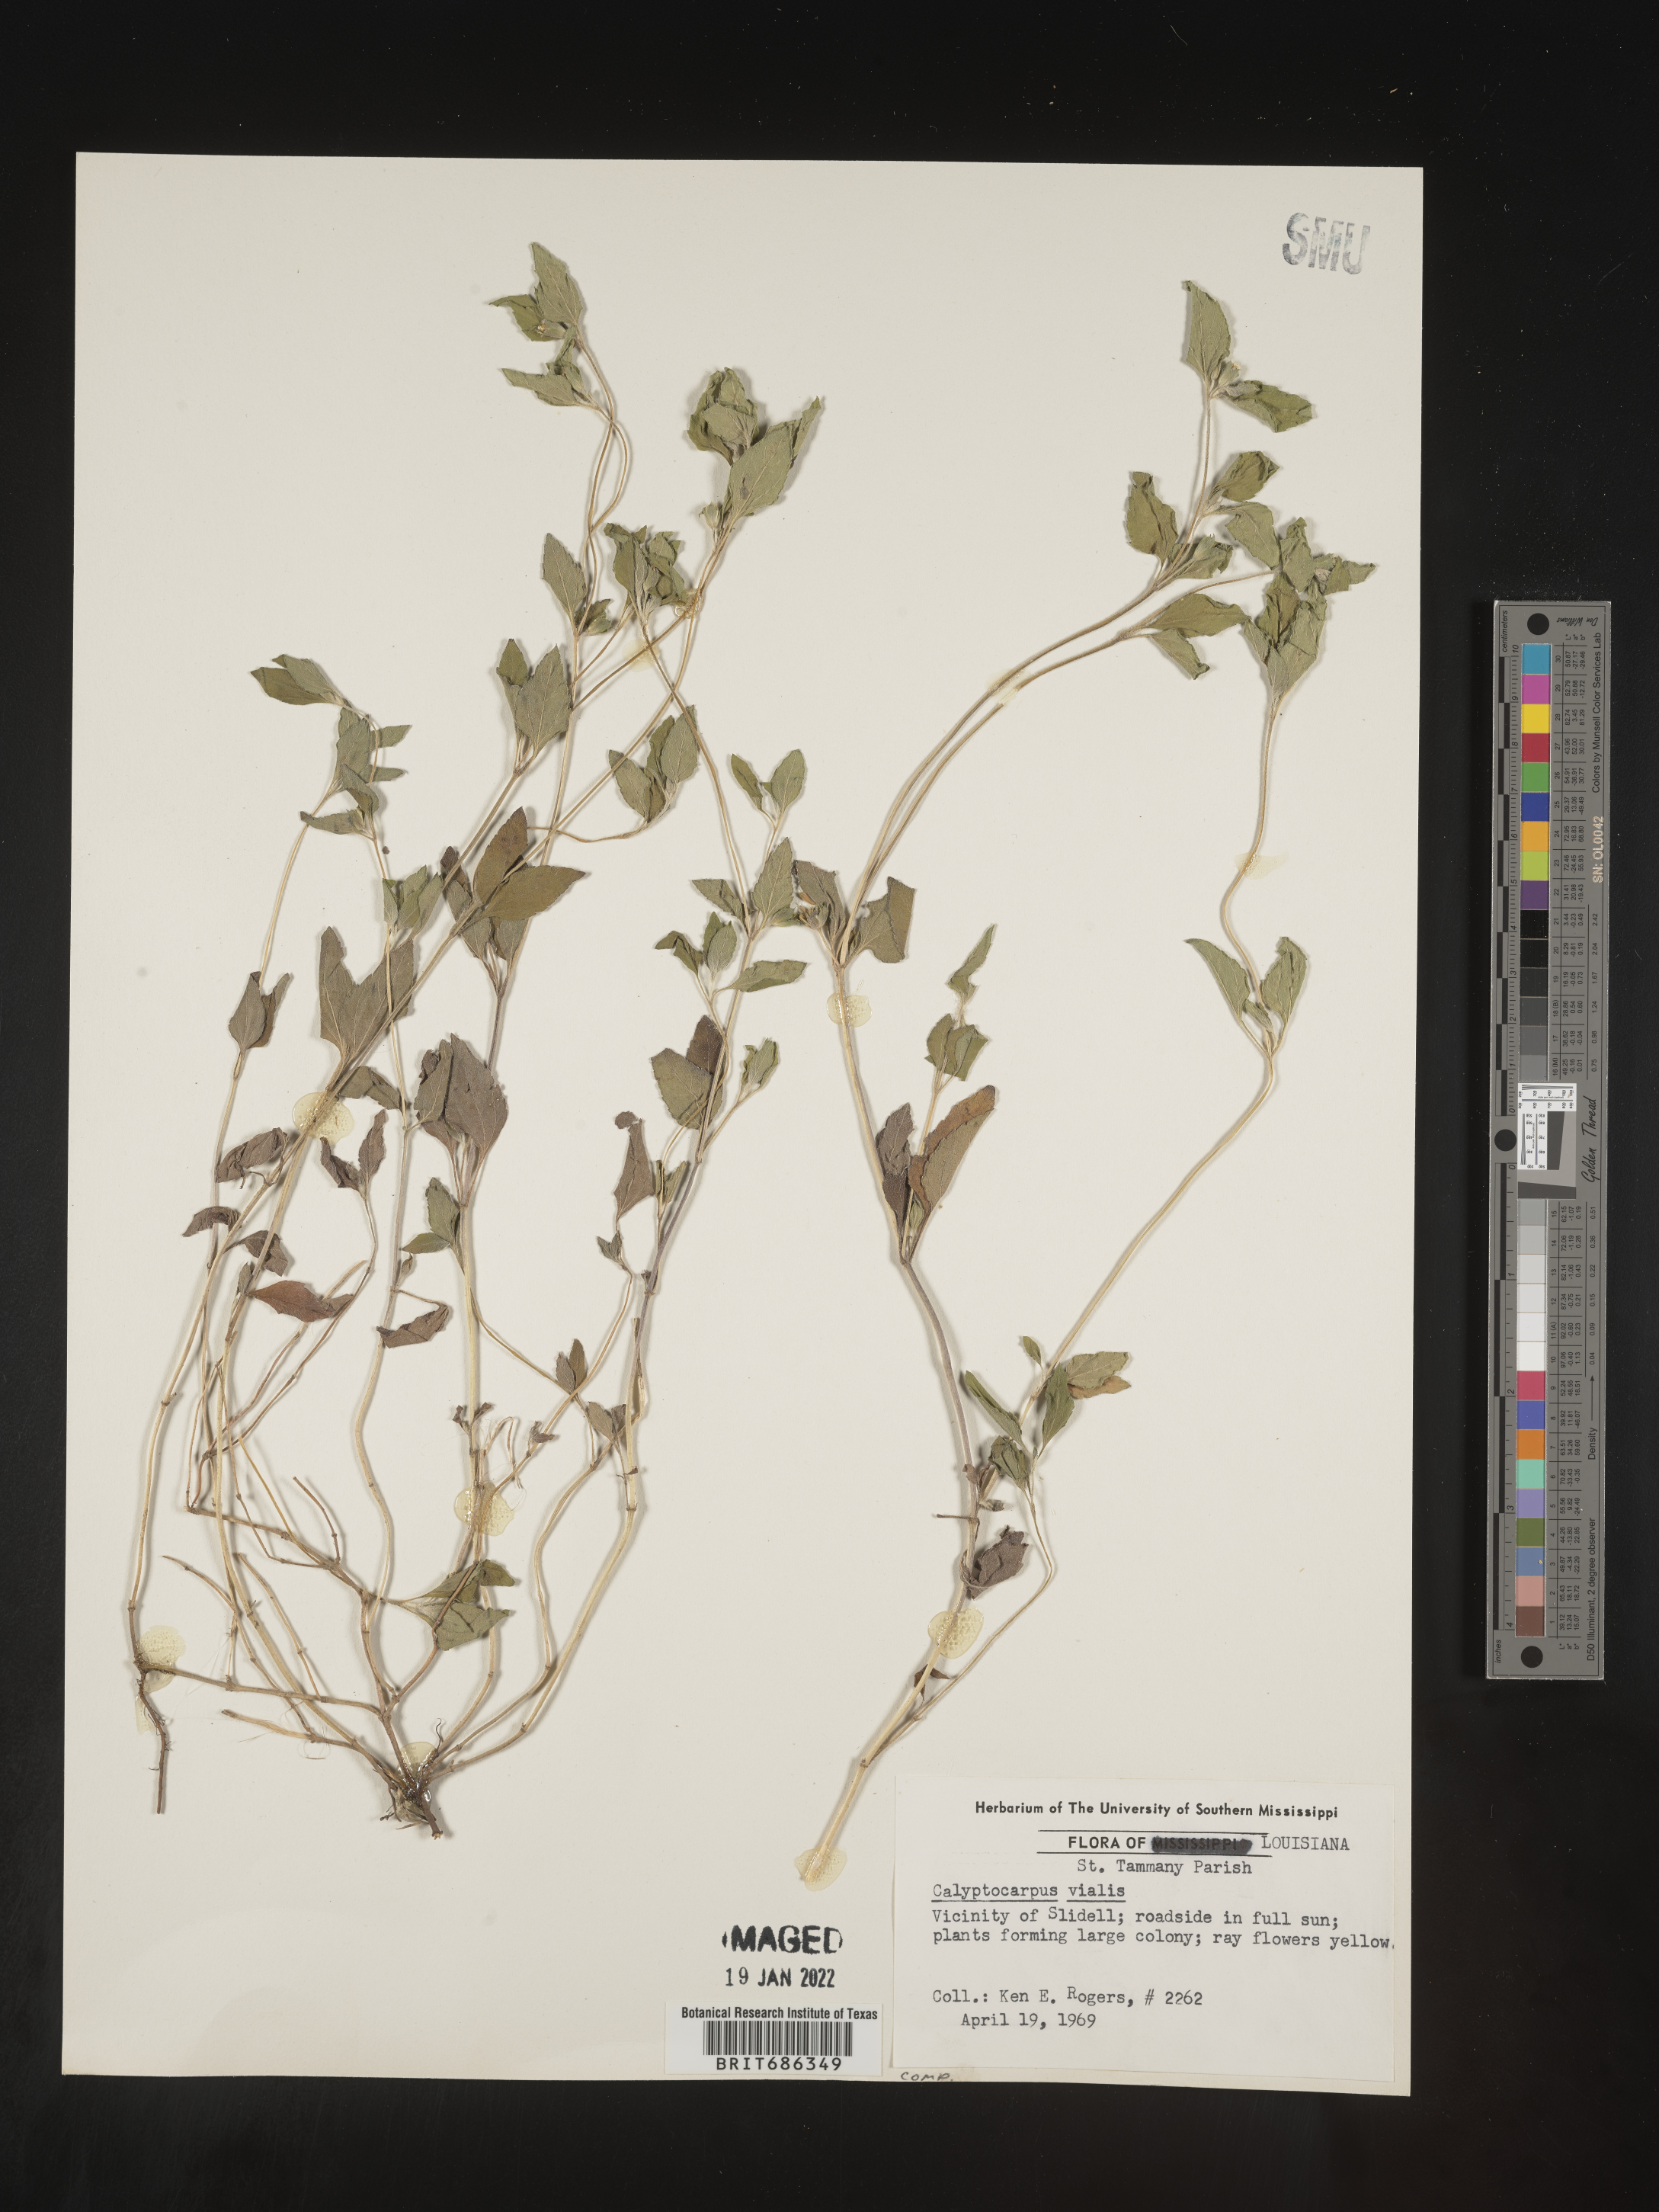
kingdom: Plantae
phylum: Tracheophyta
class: Magnoliopsida
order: Asterales
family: Asteraceae
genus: Calyptocarpus
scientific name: Calyptocarpus
